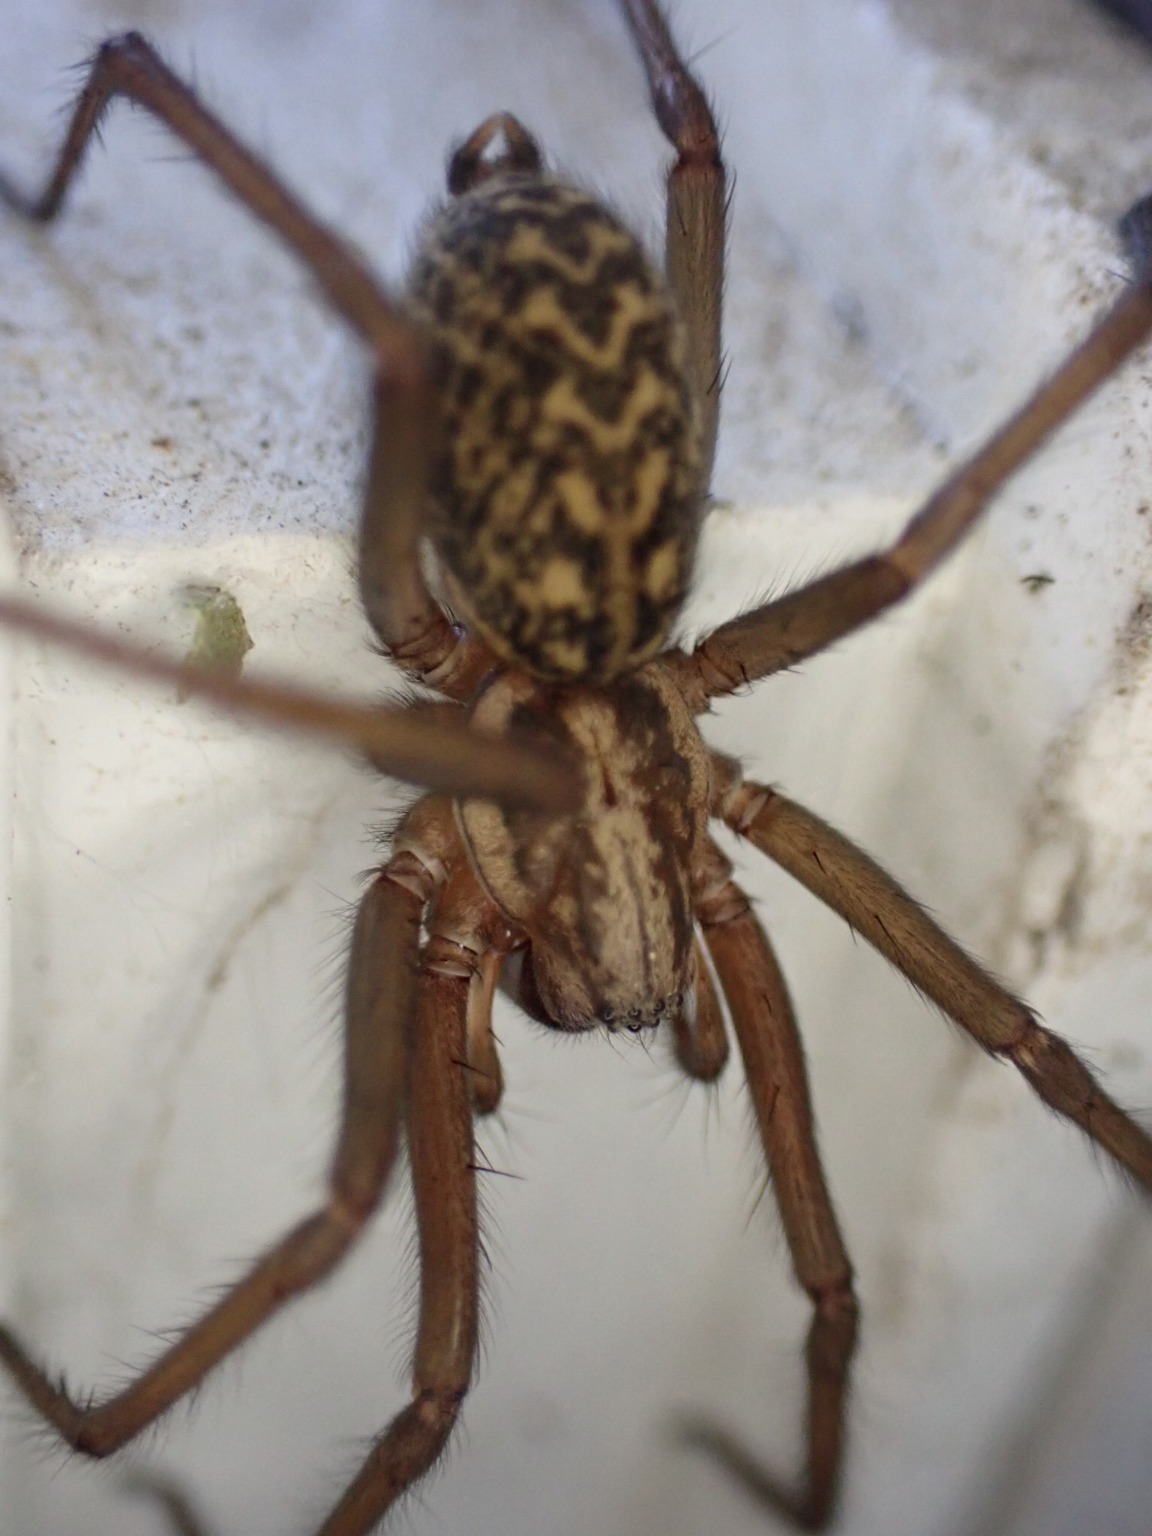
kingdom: Animalia
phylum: Arthropoda
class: Arachnida
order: Araneae
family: Agelenidae
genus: Eratigena
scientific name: Eratigena atrica
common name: Stor husedderkop
